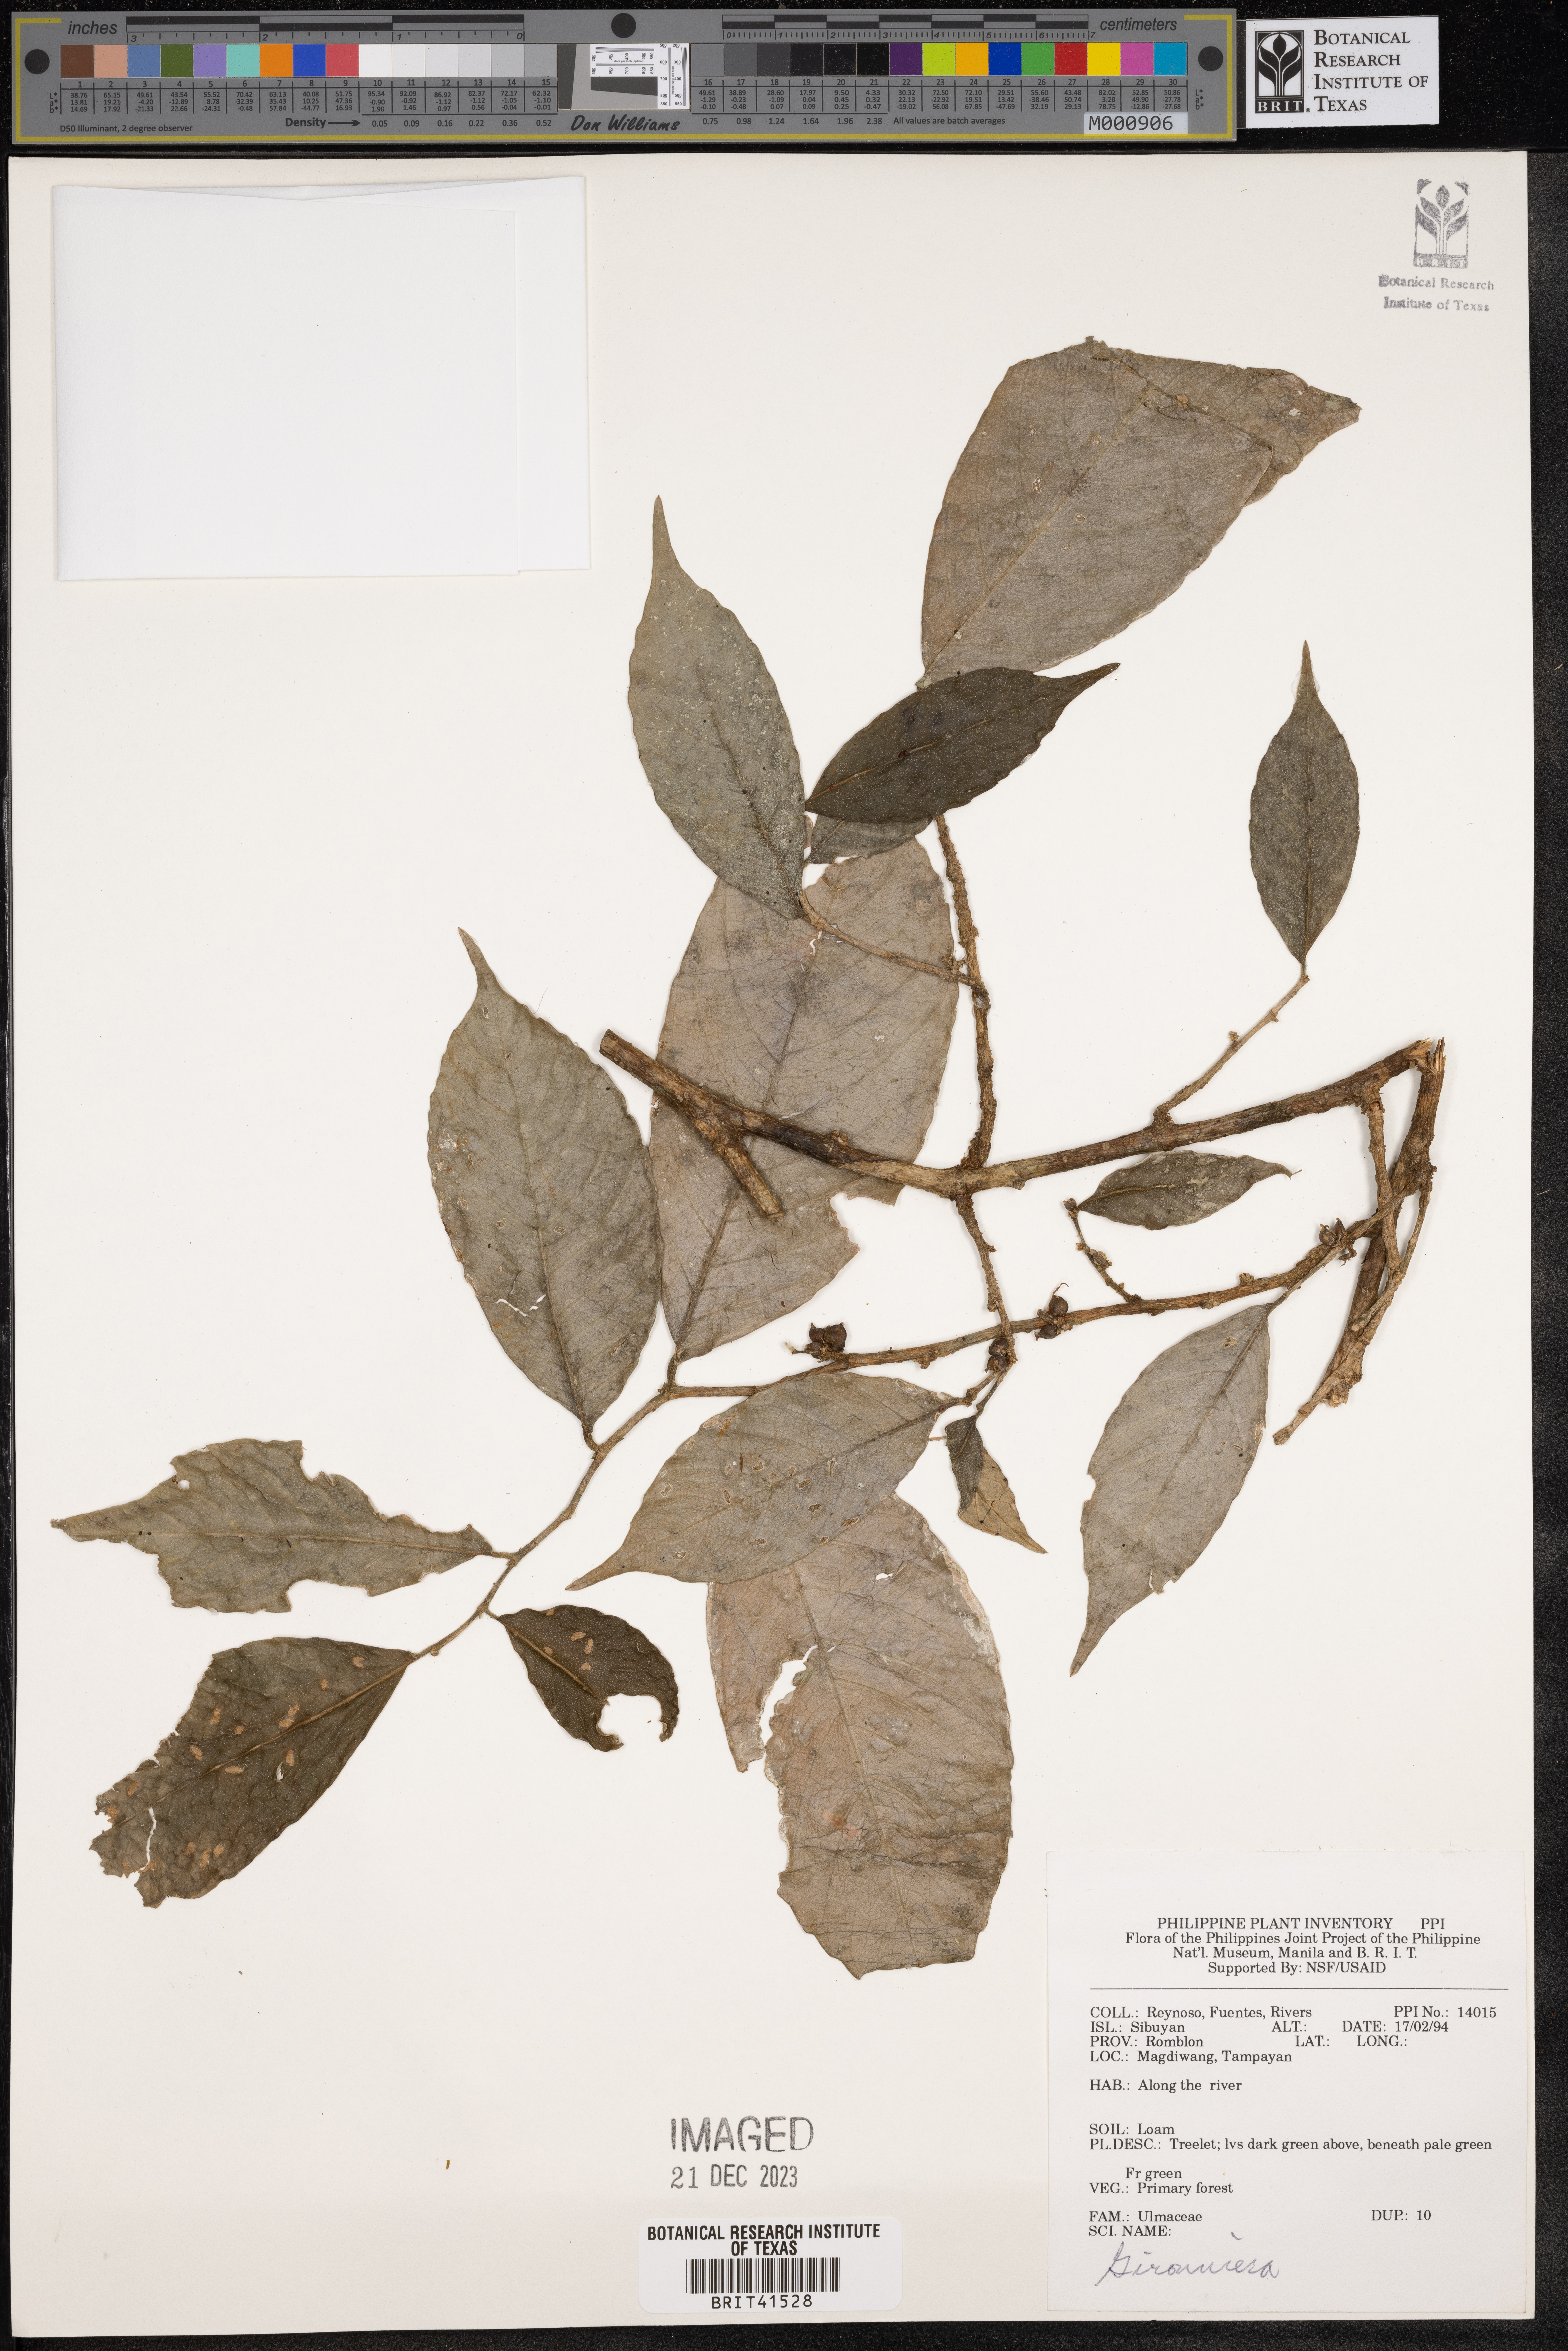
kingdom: Plantae
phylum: Tracheophyta
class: Magnoliopsida
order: Rosales
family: Cannabaceae
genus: Gironniera
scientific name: Gironniera
